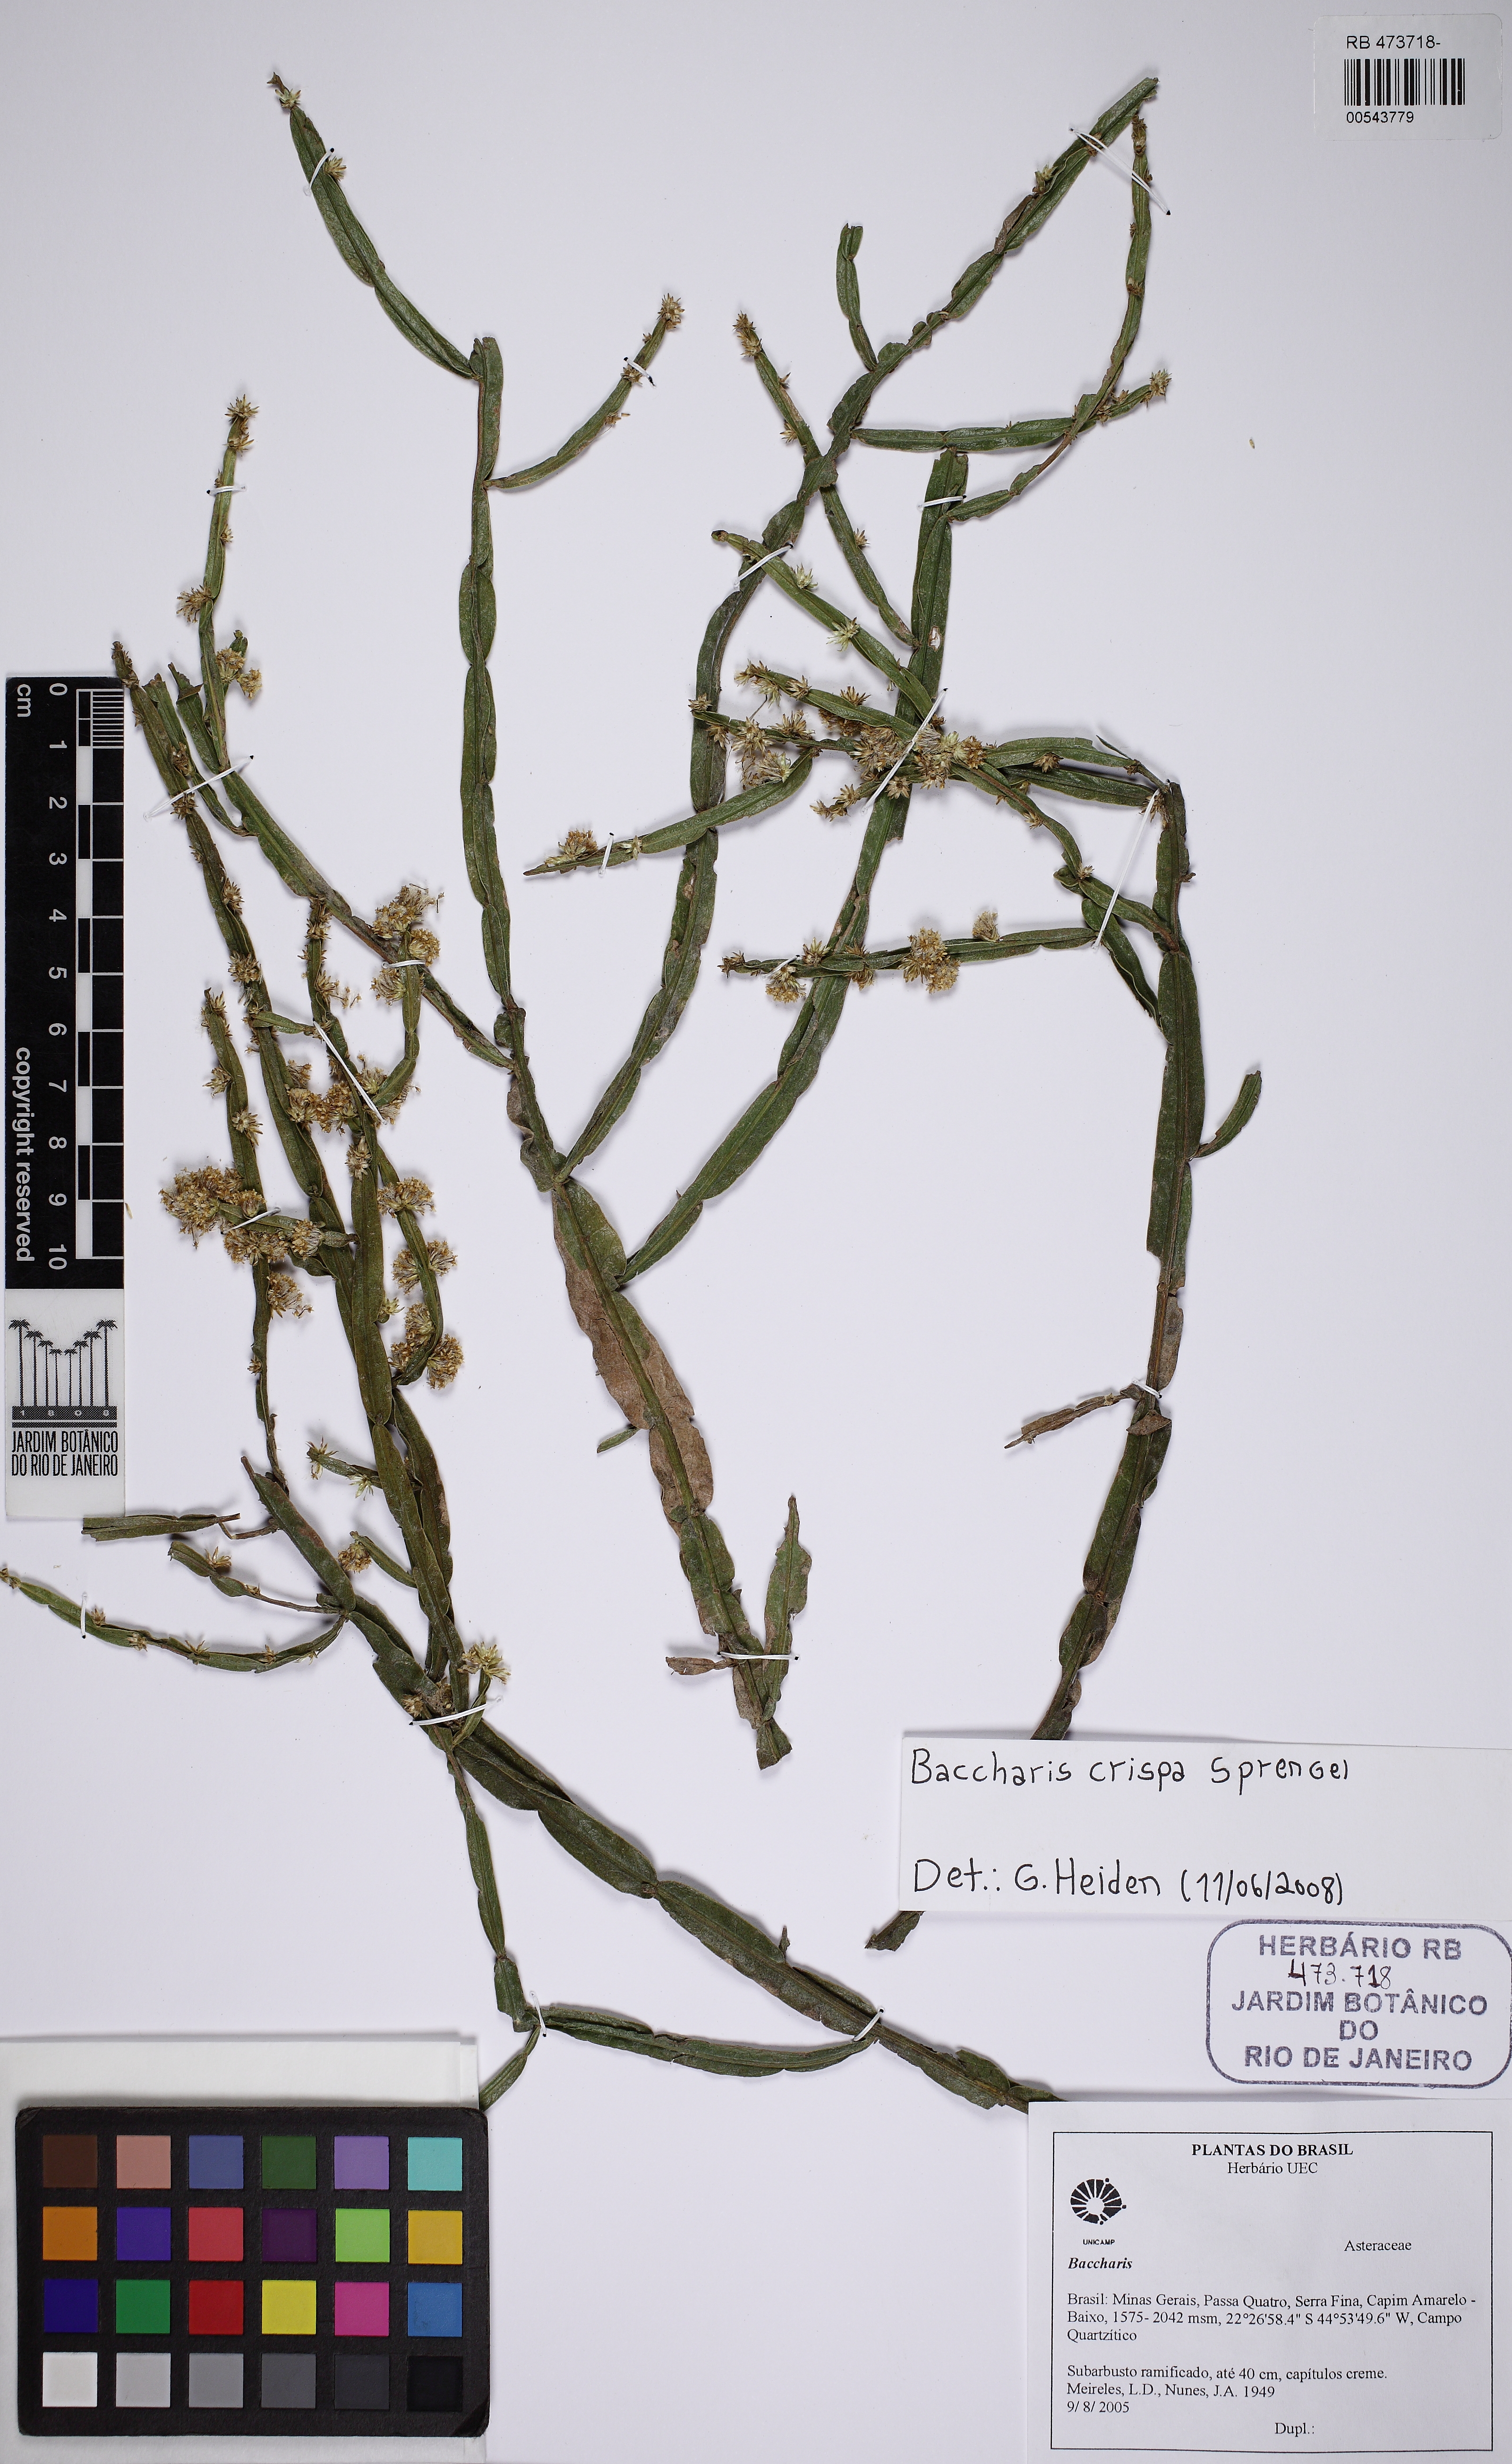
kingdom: Plantae
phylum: Tracheophyta
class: Magnoliopsida
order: Asterales
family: Asteraceae
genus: Baccharis
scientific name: Baccharis crispa
